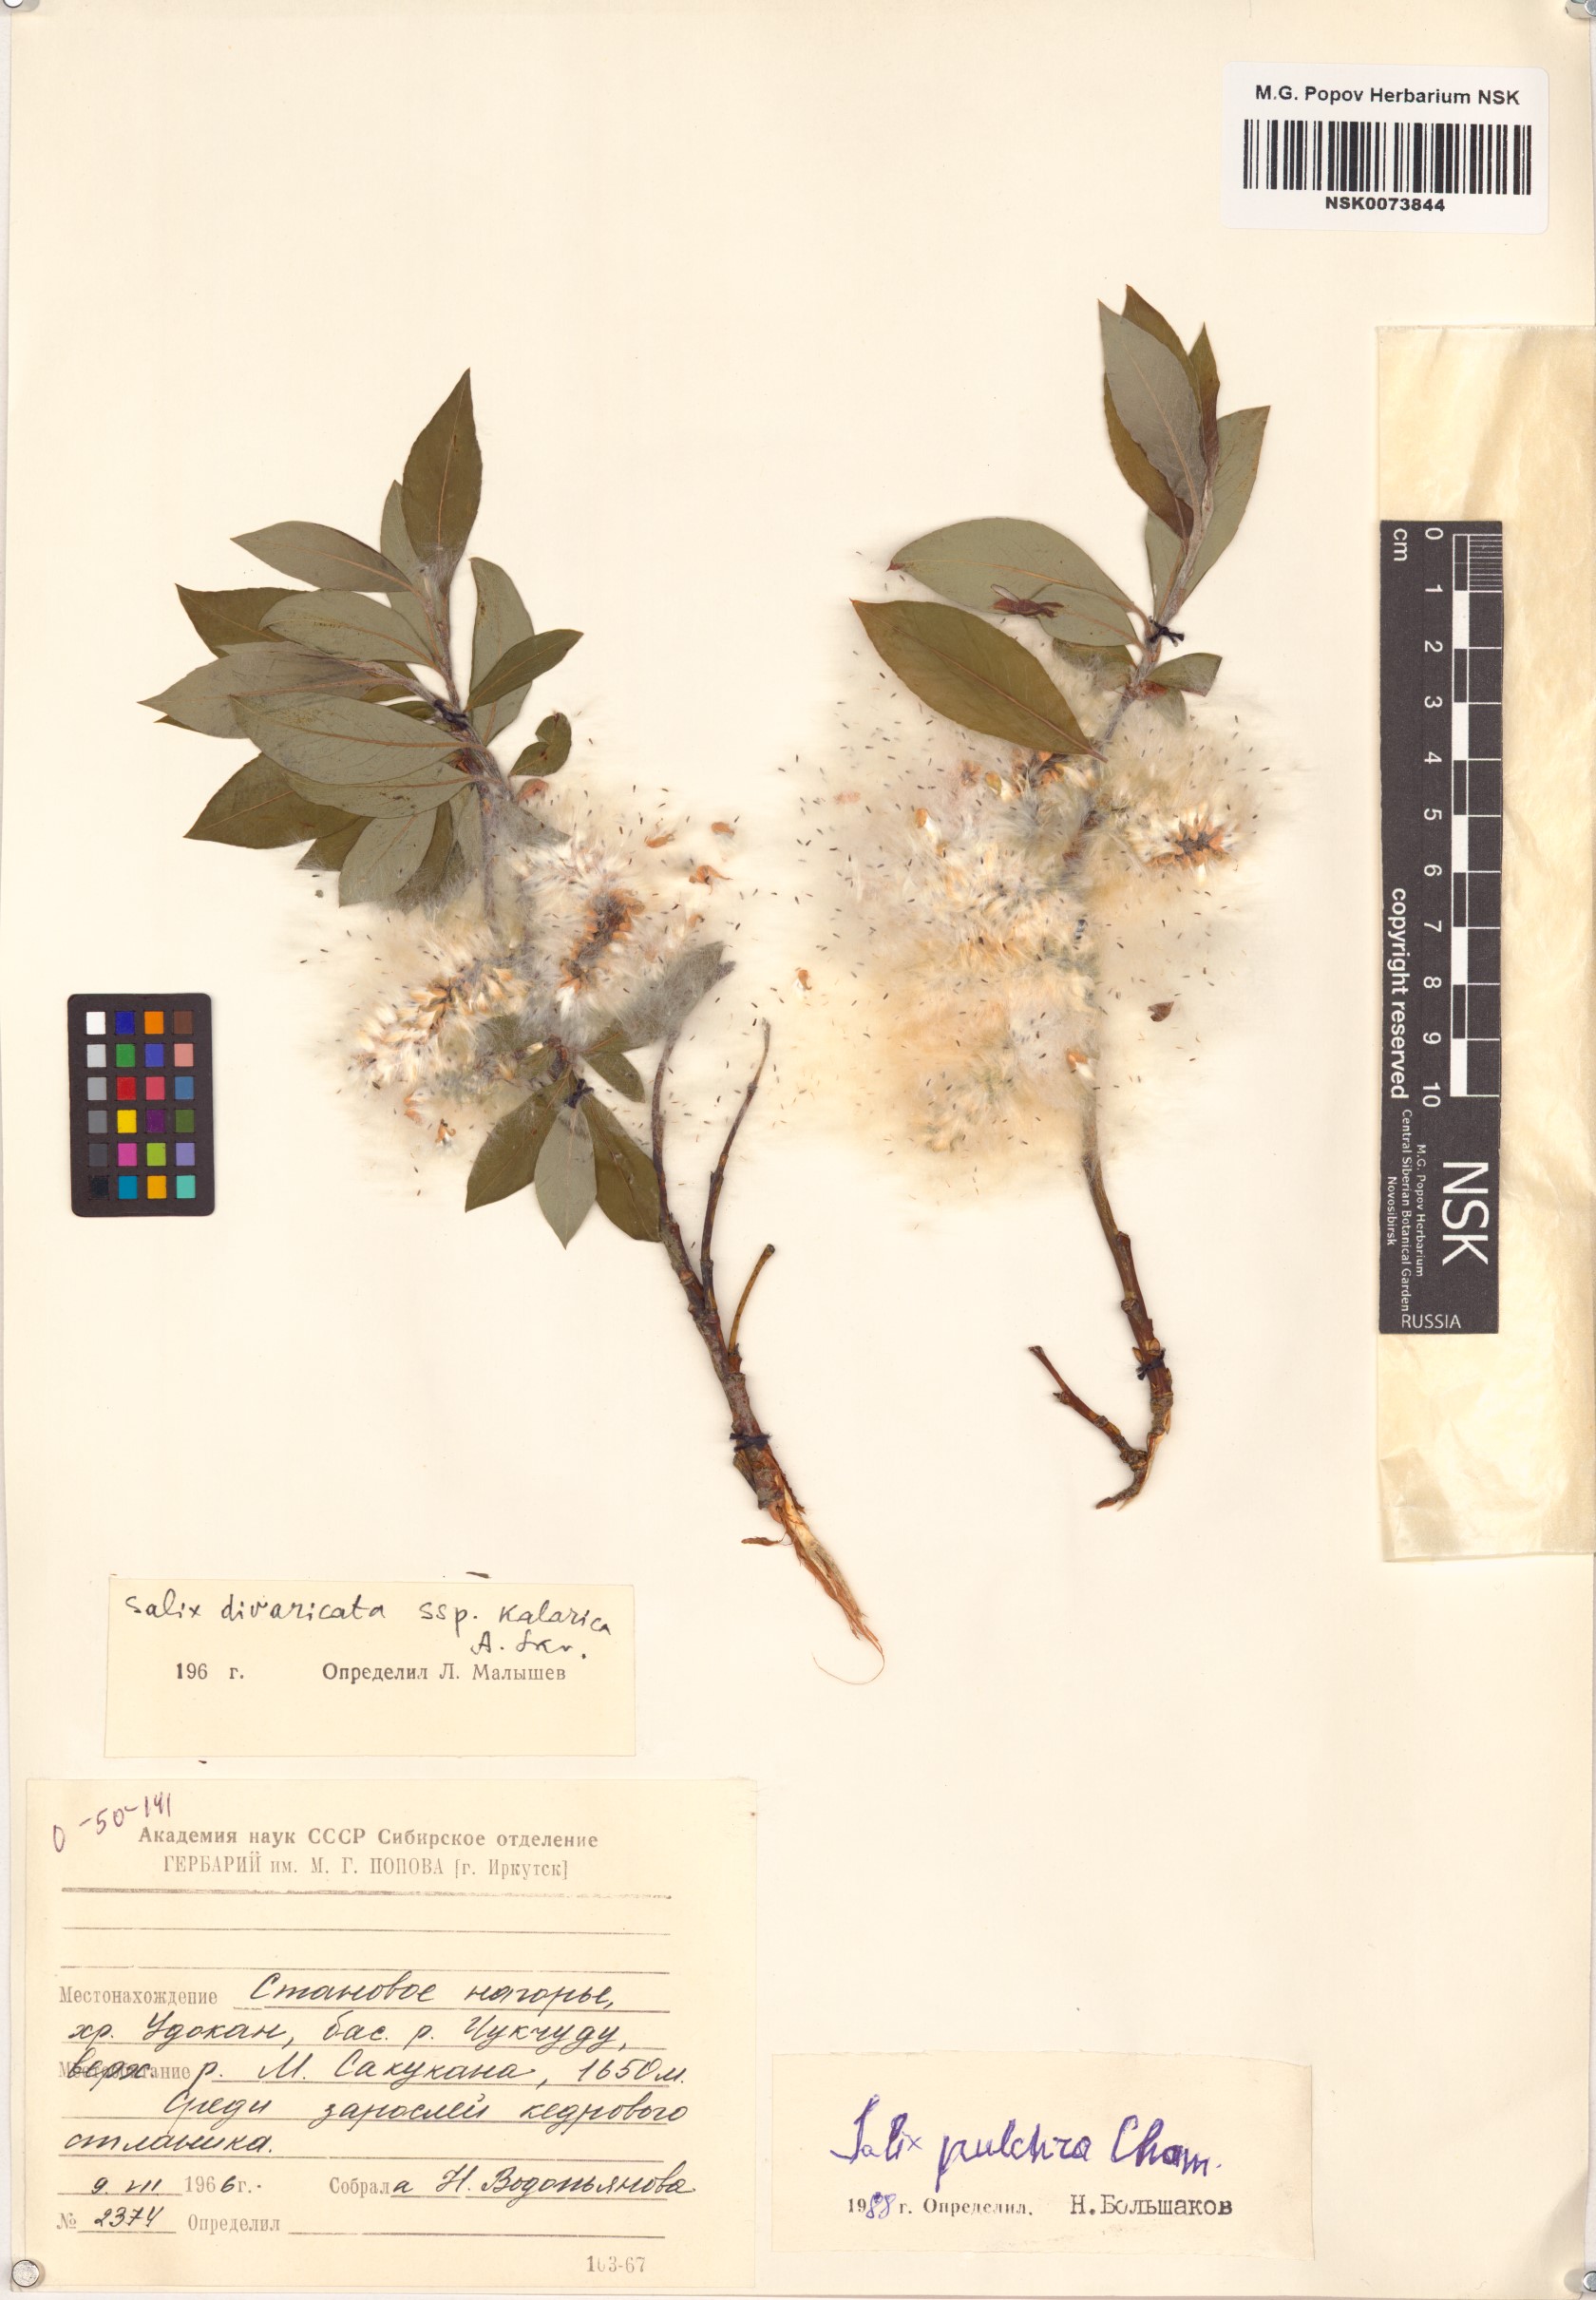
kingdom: Plantae
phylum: Tracheophyta
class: Magnoliopsida
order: Malpighiales
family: Salicaceae
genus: Salix
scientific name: Salix pulchra
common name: Diamond-leaved willow
